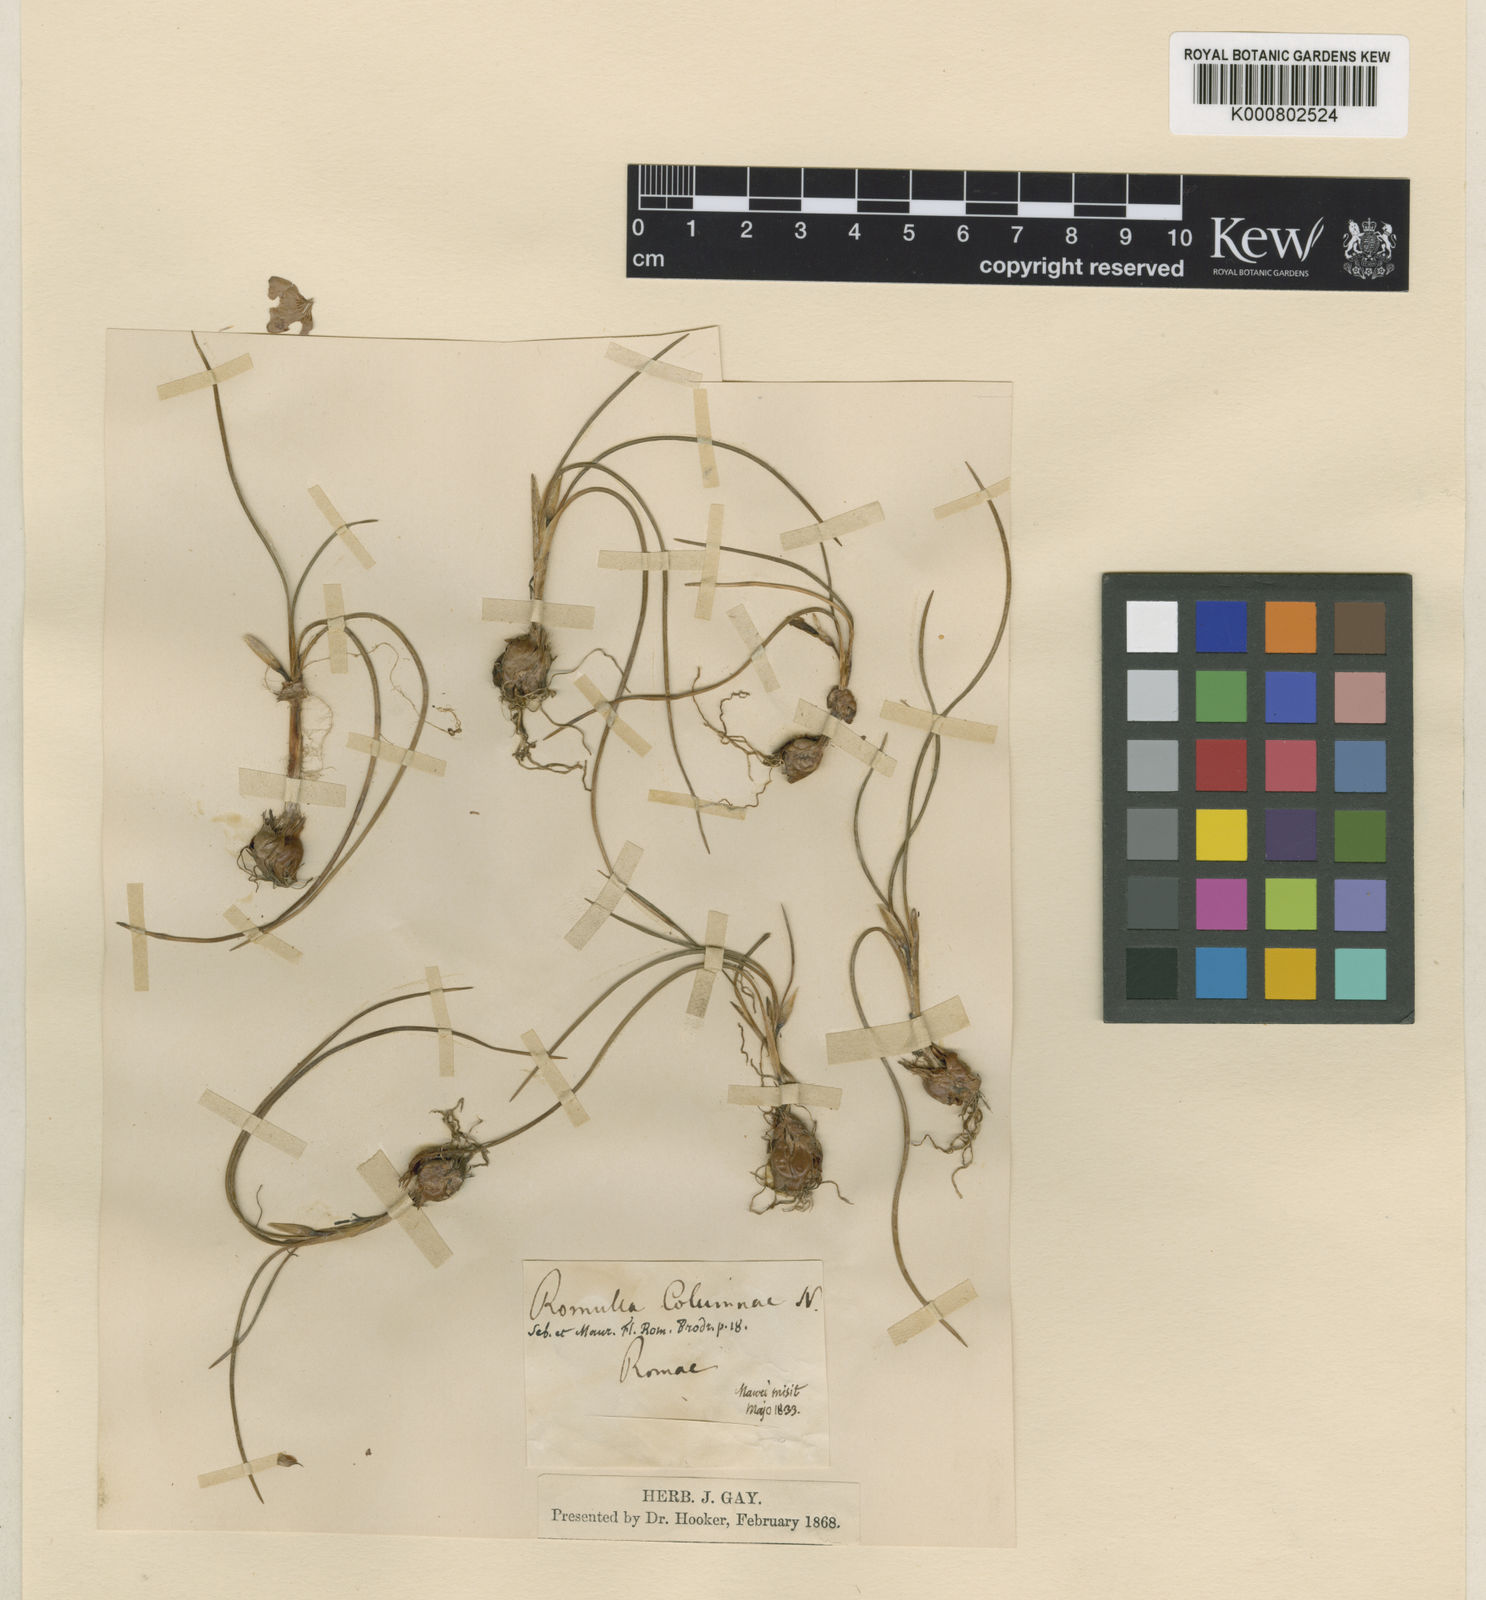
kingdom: Plantae
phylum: Tracheophyta
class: Liliopsida
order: Asparagales
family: Iridaceae
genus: Romulea
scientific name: Romulea columnae
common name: Sand-crocus
